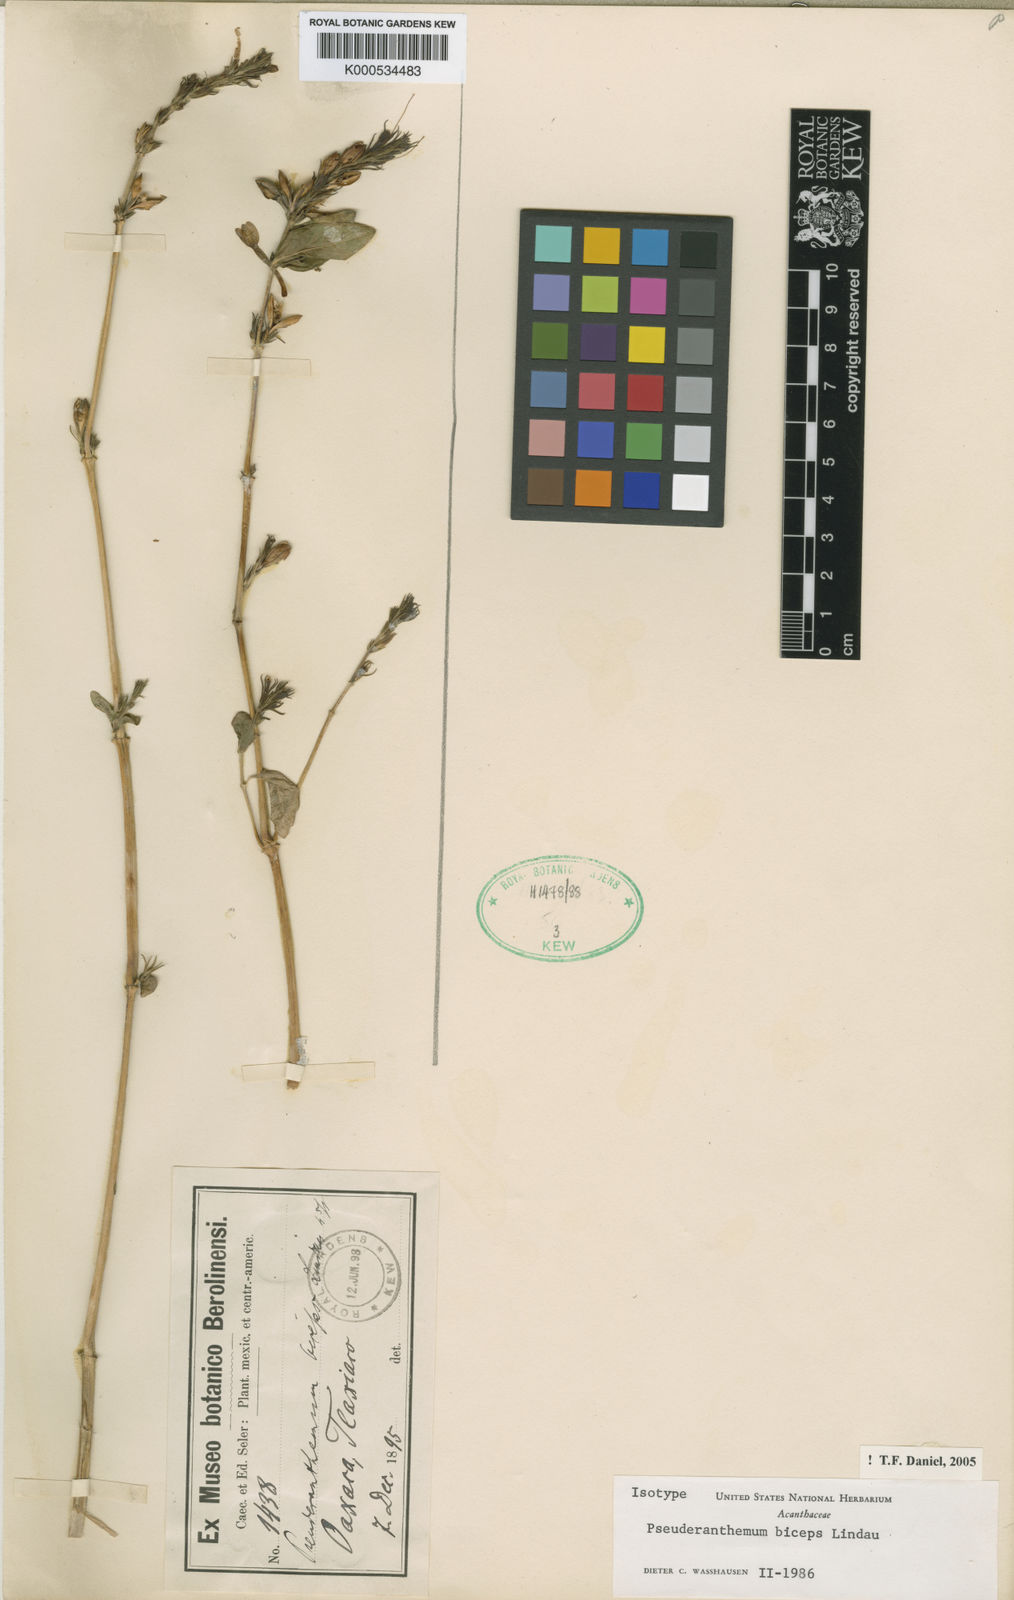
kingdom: Plantae
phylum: Tracheophyta
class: Magnoliopsida
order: Lamiales
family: Acanthaceae
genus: Pseuderanthemum
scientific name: Pseuderanthemum biceps
